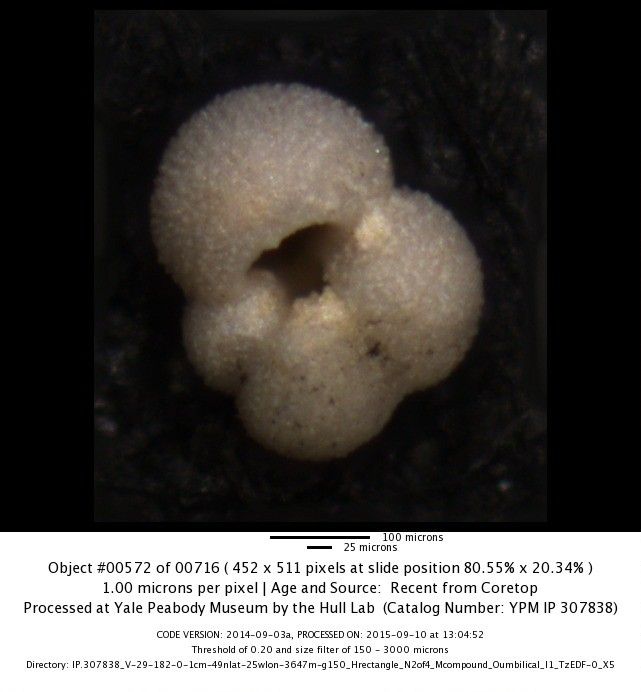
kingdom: Chromista
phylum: Foraminifera
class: Globothalamea
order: Rotaliida
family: Globigerinidae
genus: Globigerina
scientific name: Globigerina bulloides
